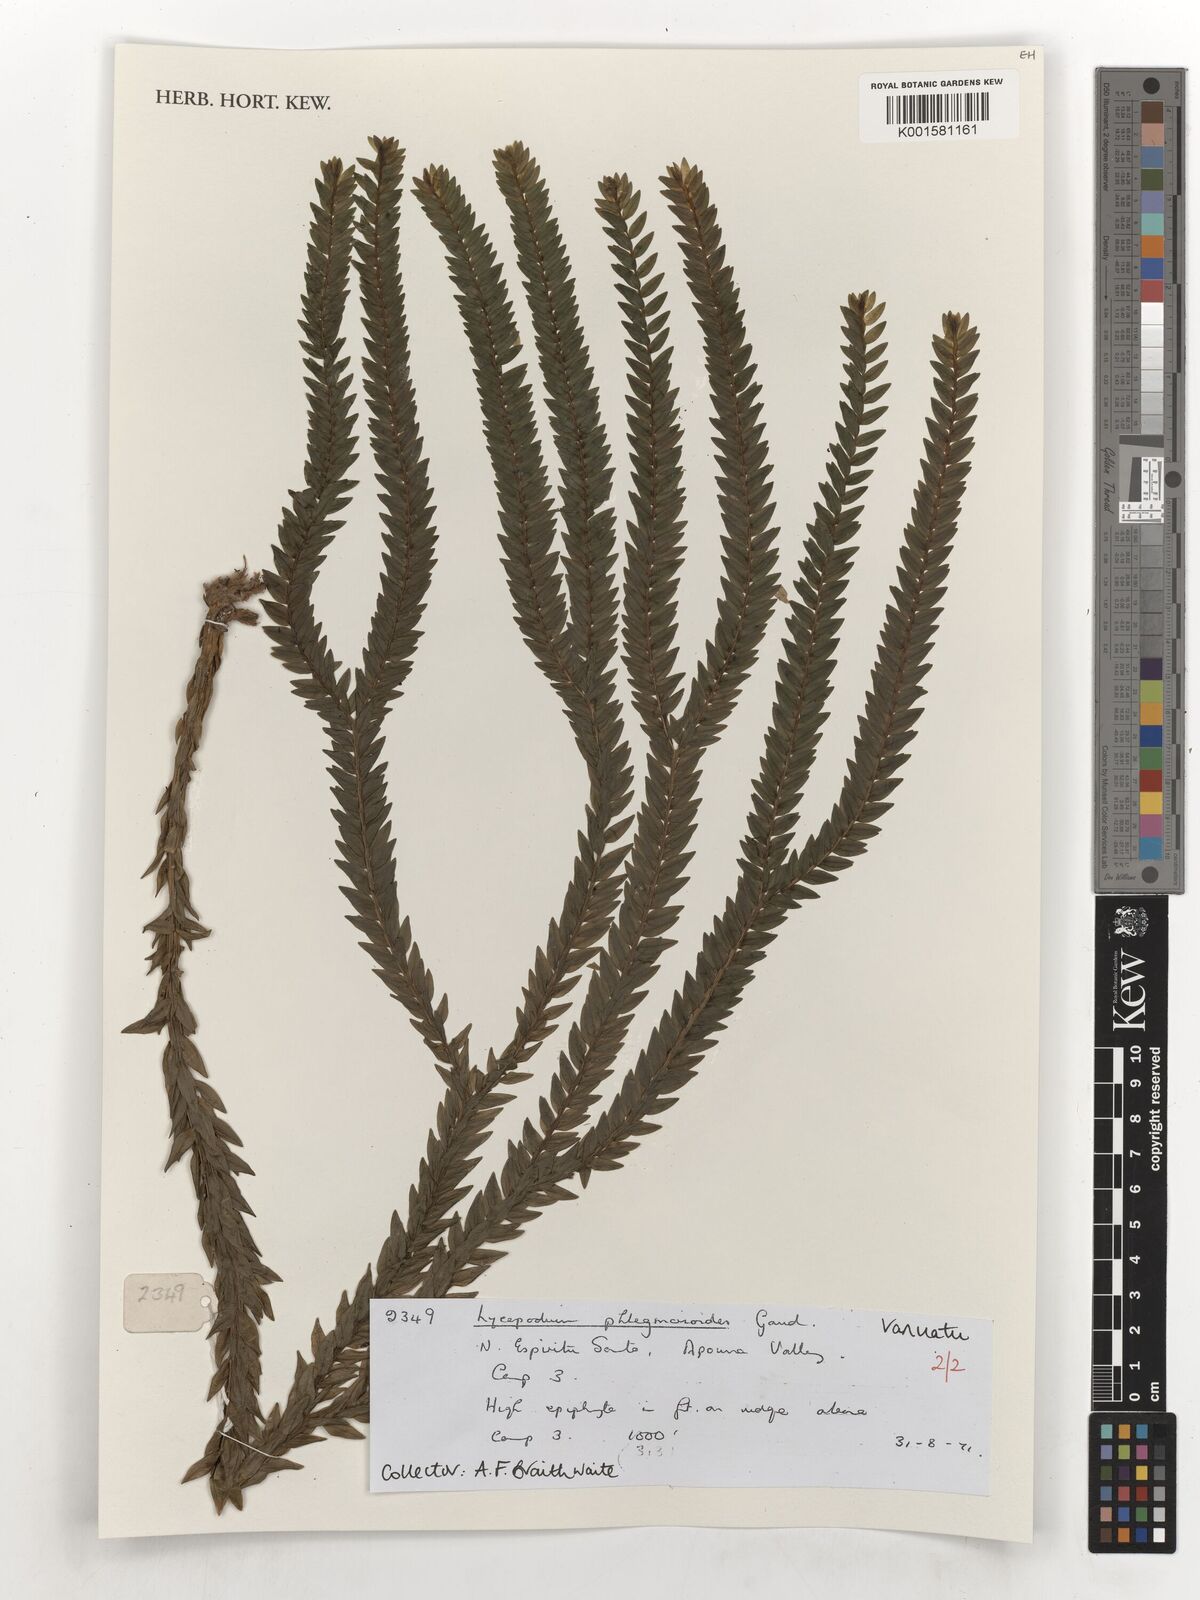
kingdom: Plantae
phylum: Tracheophyta
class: Lycopodiopsida
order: Lycopodiales
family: Lycopodiaceae
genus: Phlegmariurus
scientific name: Phlegmariurus phlegmarioides
